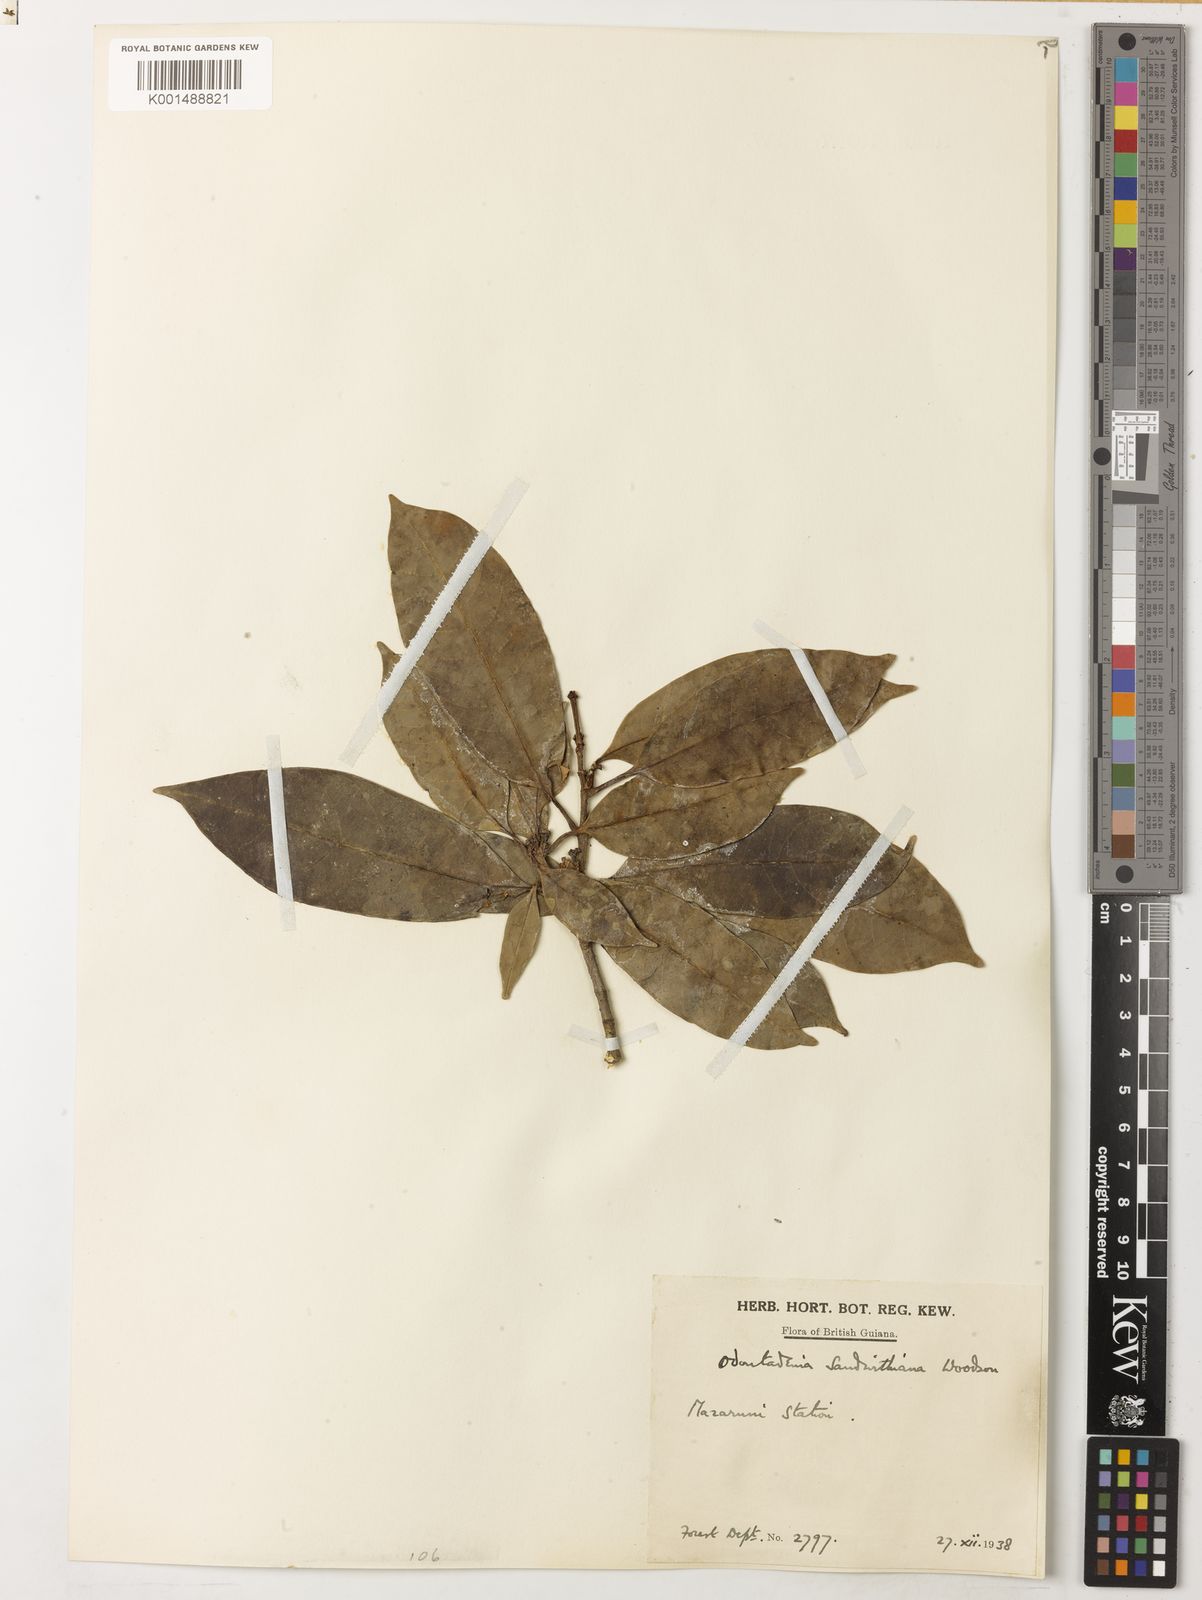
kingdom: Plantae
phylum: Tracheophyta
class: Magnoliopsida
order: Gentianales
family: Apocynaceae
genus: Odontadenia
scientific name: Odontadenia kochii
